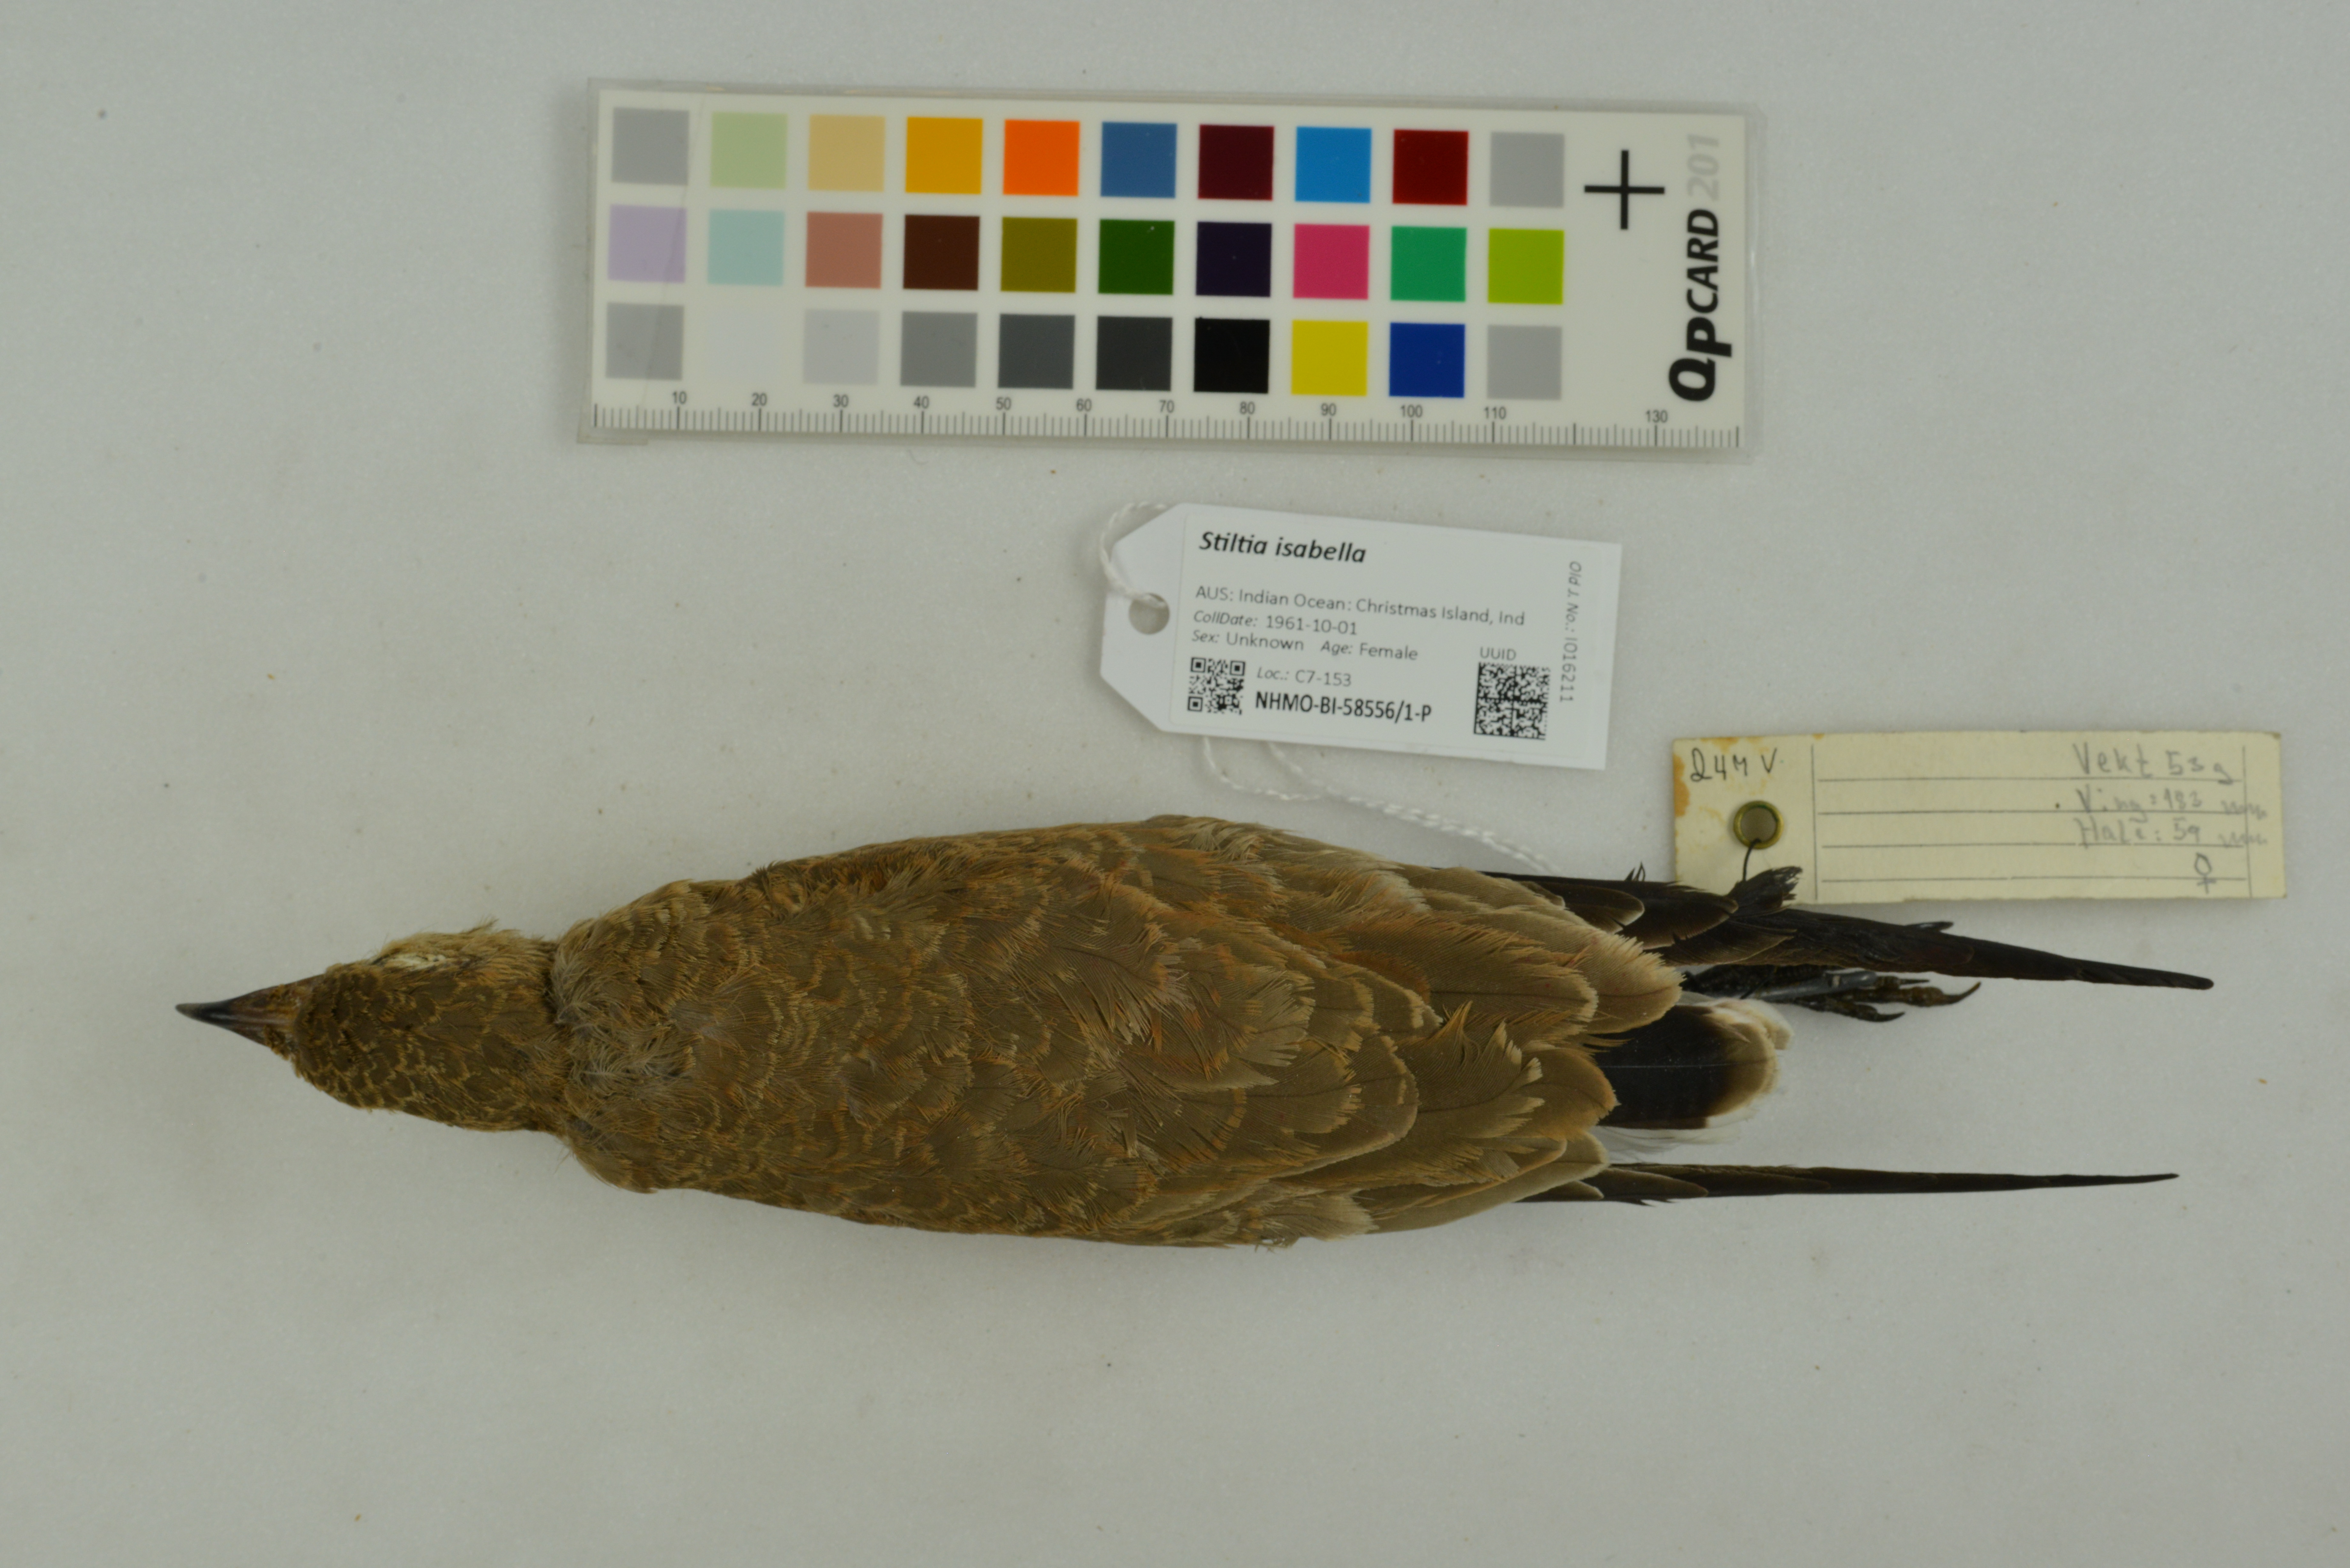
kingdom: Animalia
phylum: Chordata
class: Aves
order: Charadriiformes
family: Glareolidae
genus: Stiltia
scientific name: Stiltia isabella
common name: Australian pratincole
